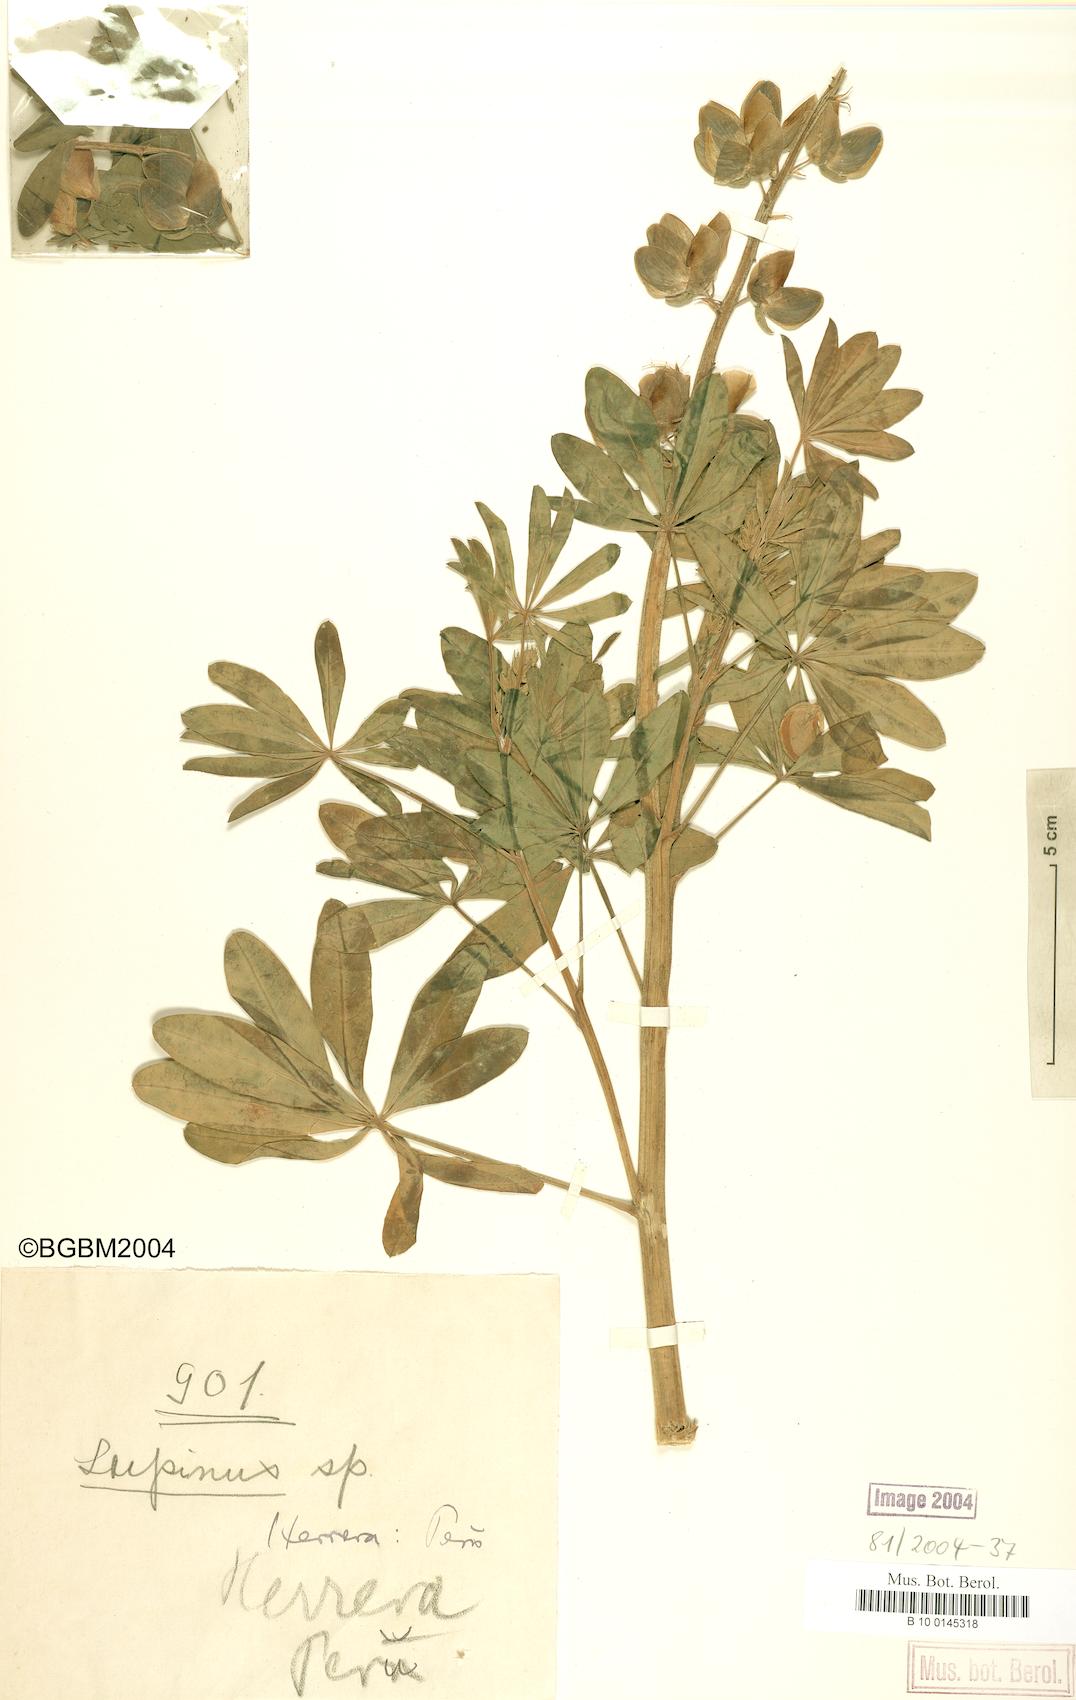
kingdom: Plantae
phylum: Tracheophyta
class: Magnoliopsida
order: Fabales
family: Fabaceae
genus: Lupinus
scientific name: Lupinus
